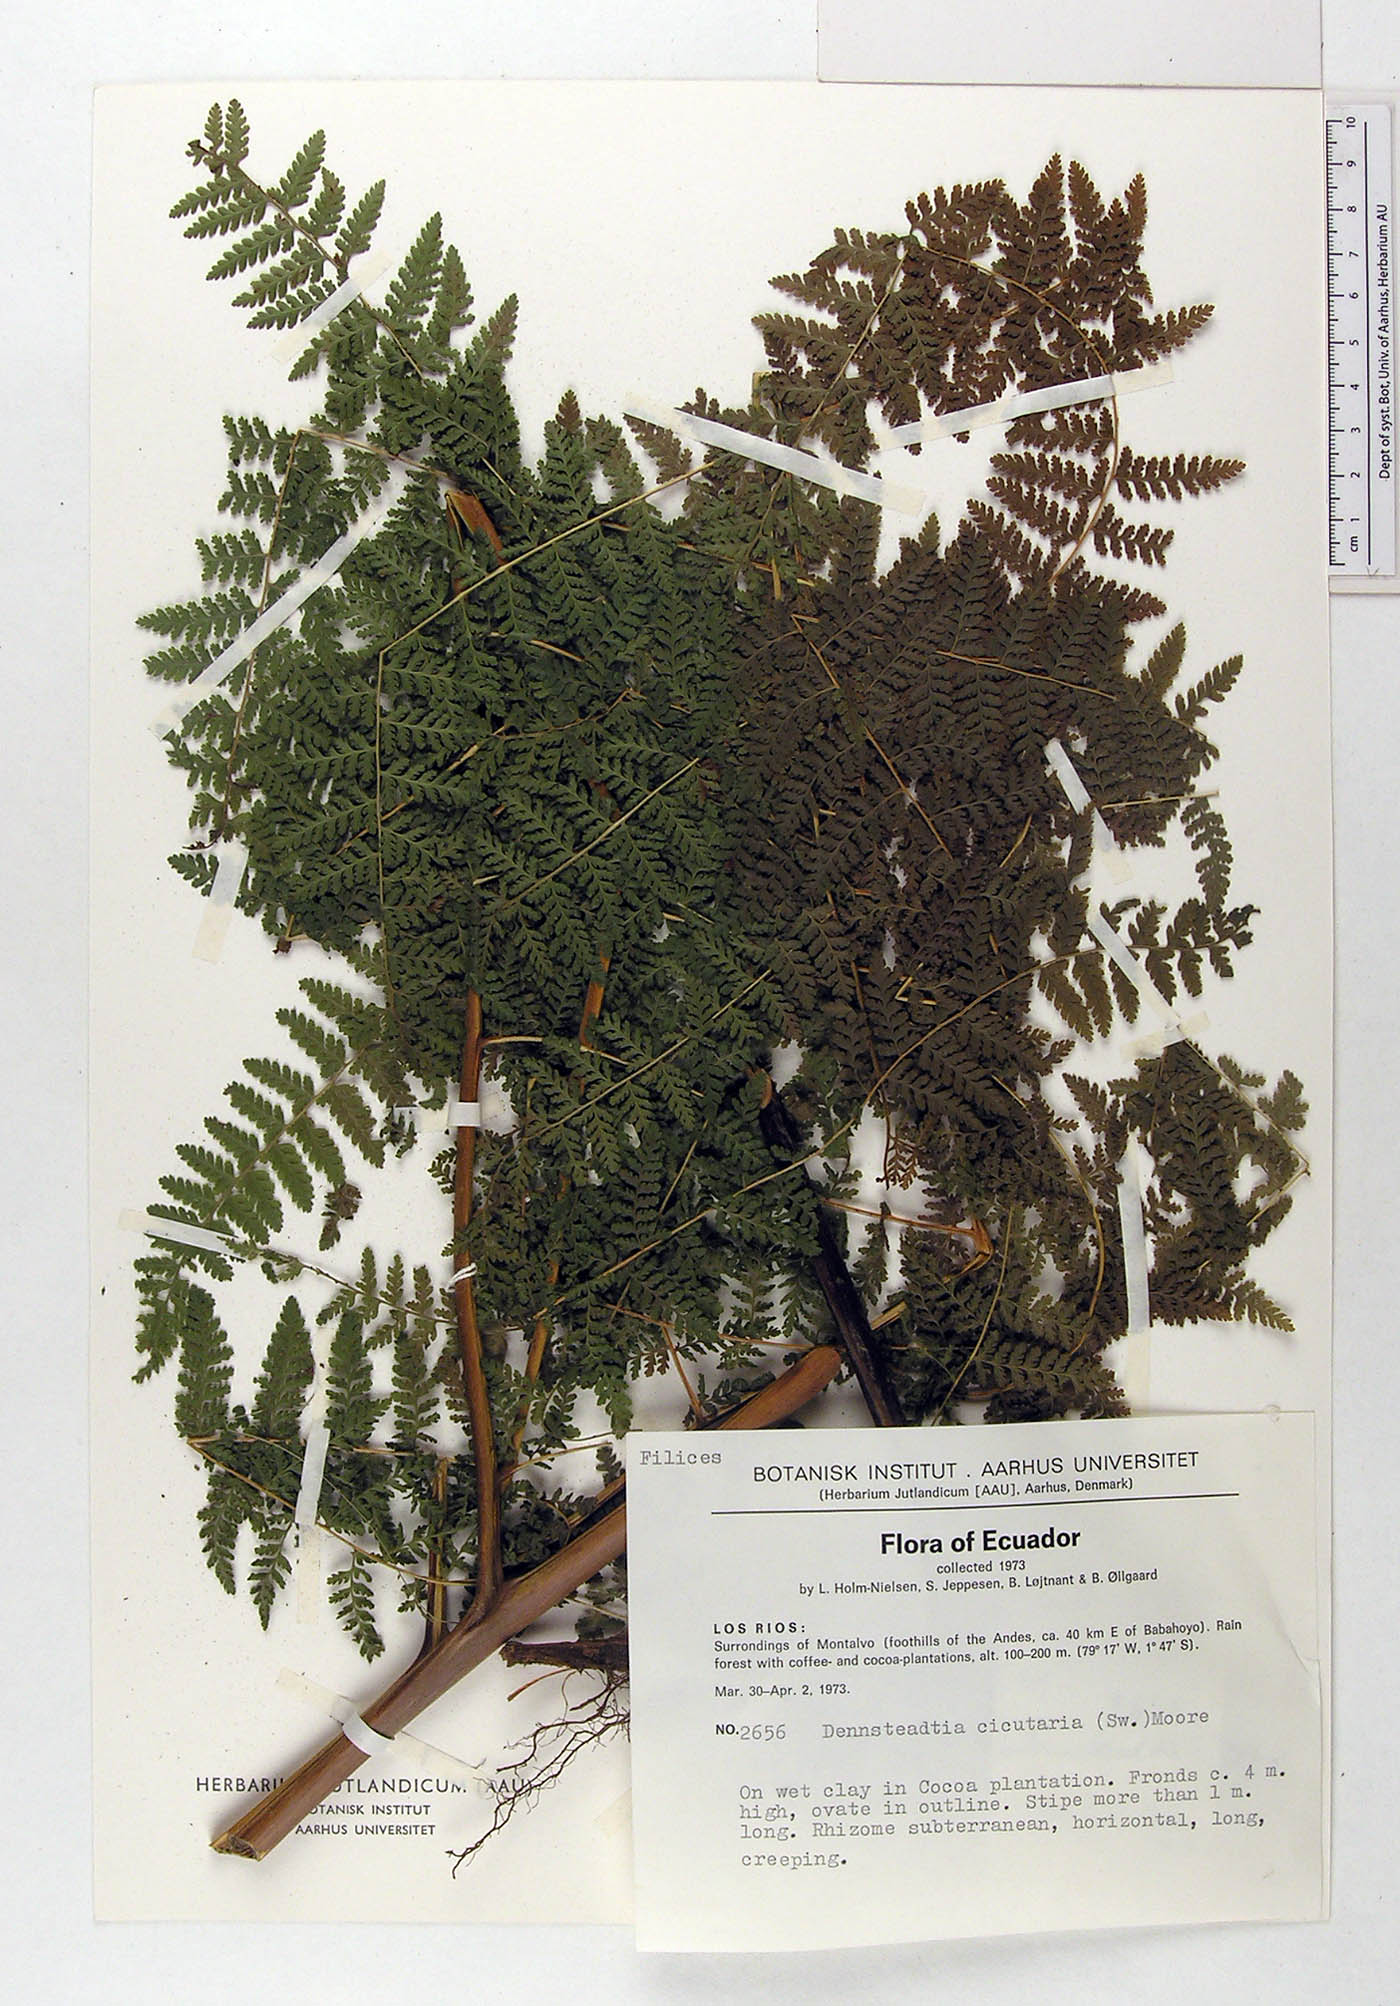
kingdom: Plantae
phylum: Tracheophyta
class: Polypodiopsida
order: Polypodiales
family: Dennstaedtiaceae
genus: Dennstaedtia
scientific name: Dennstaedtia cicutaria
